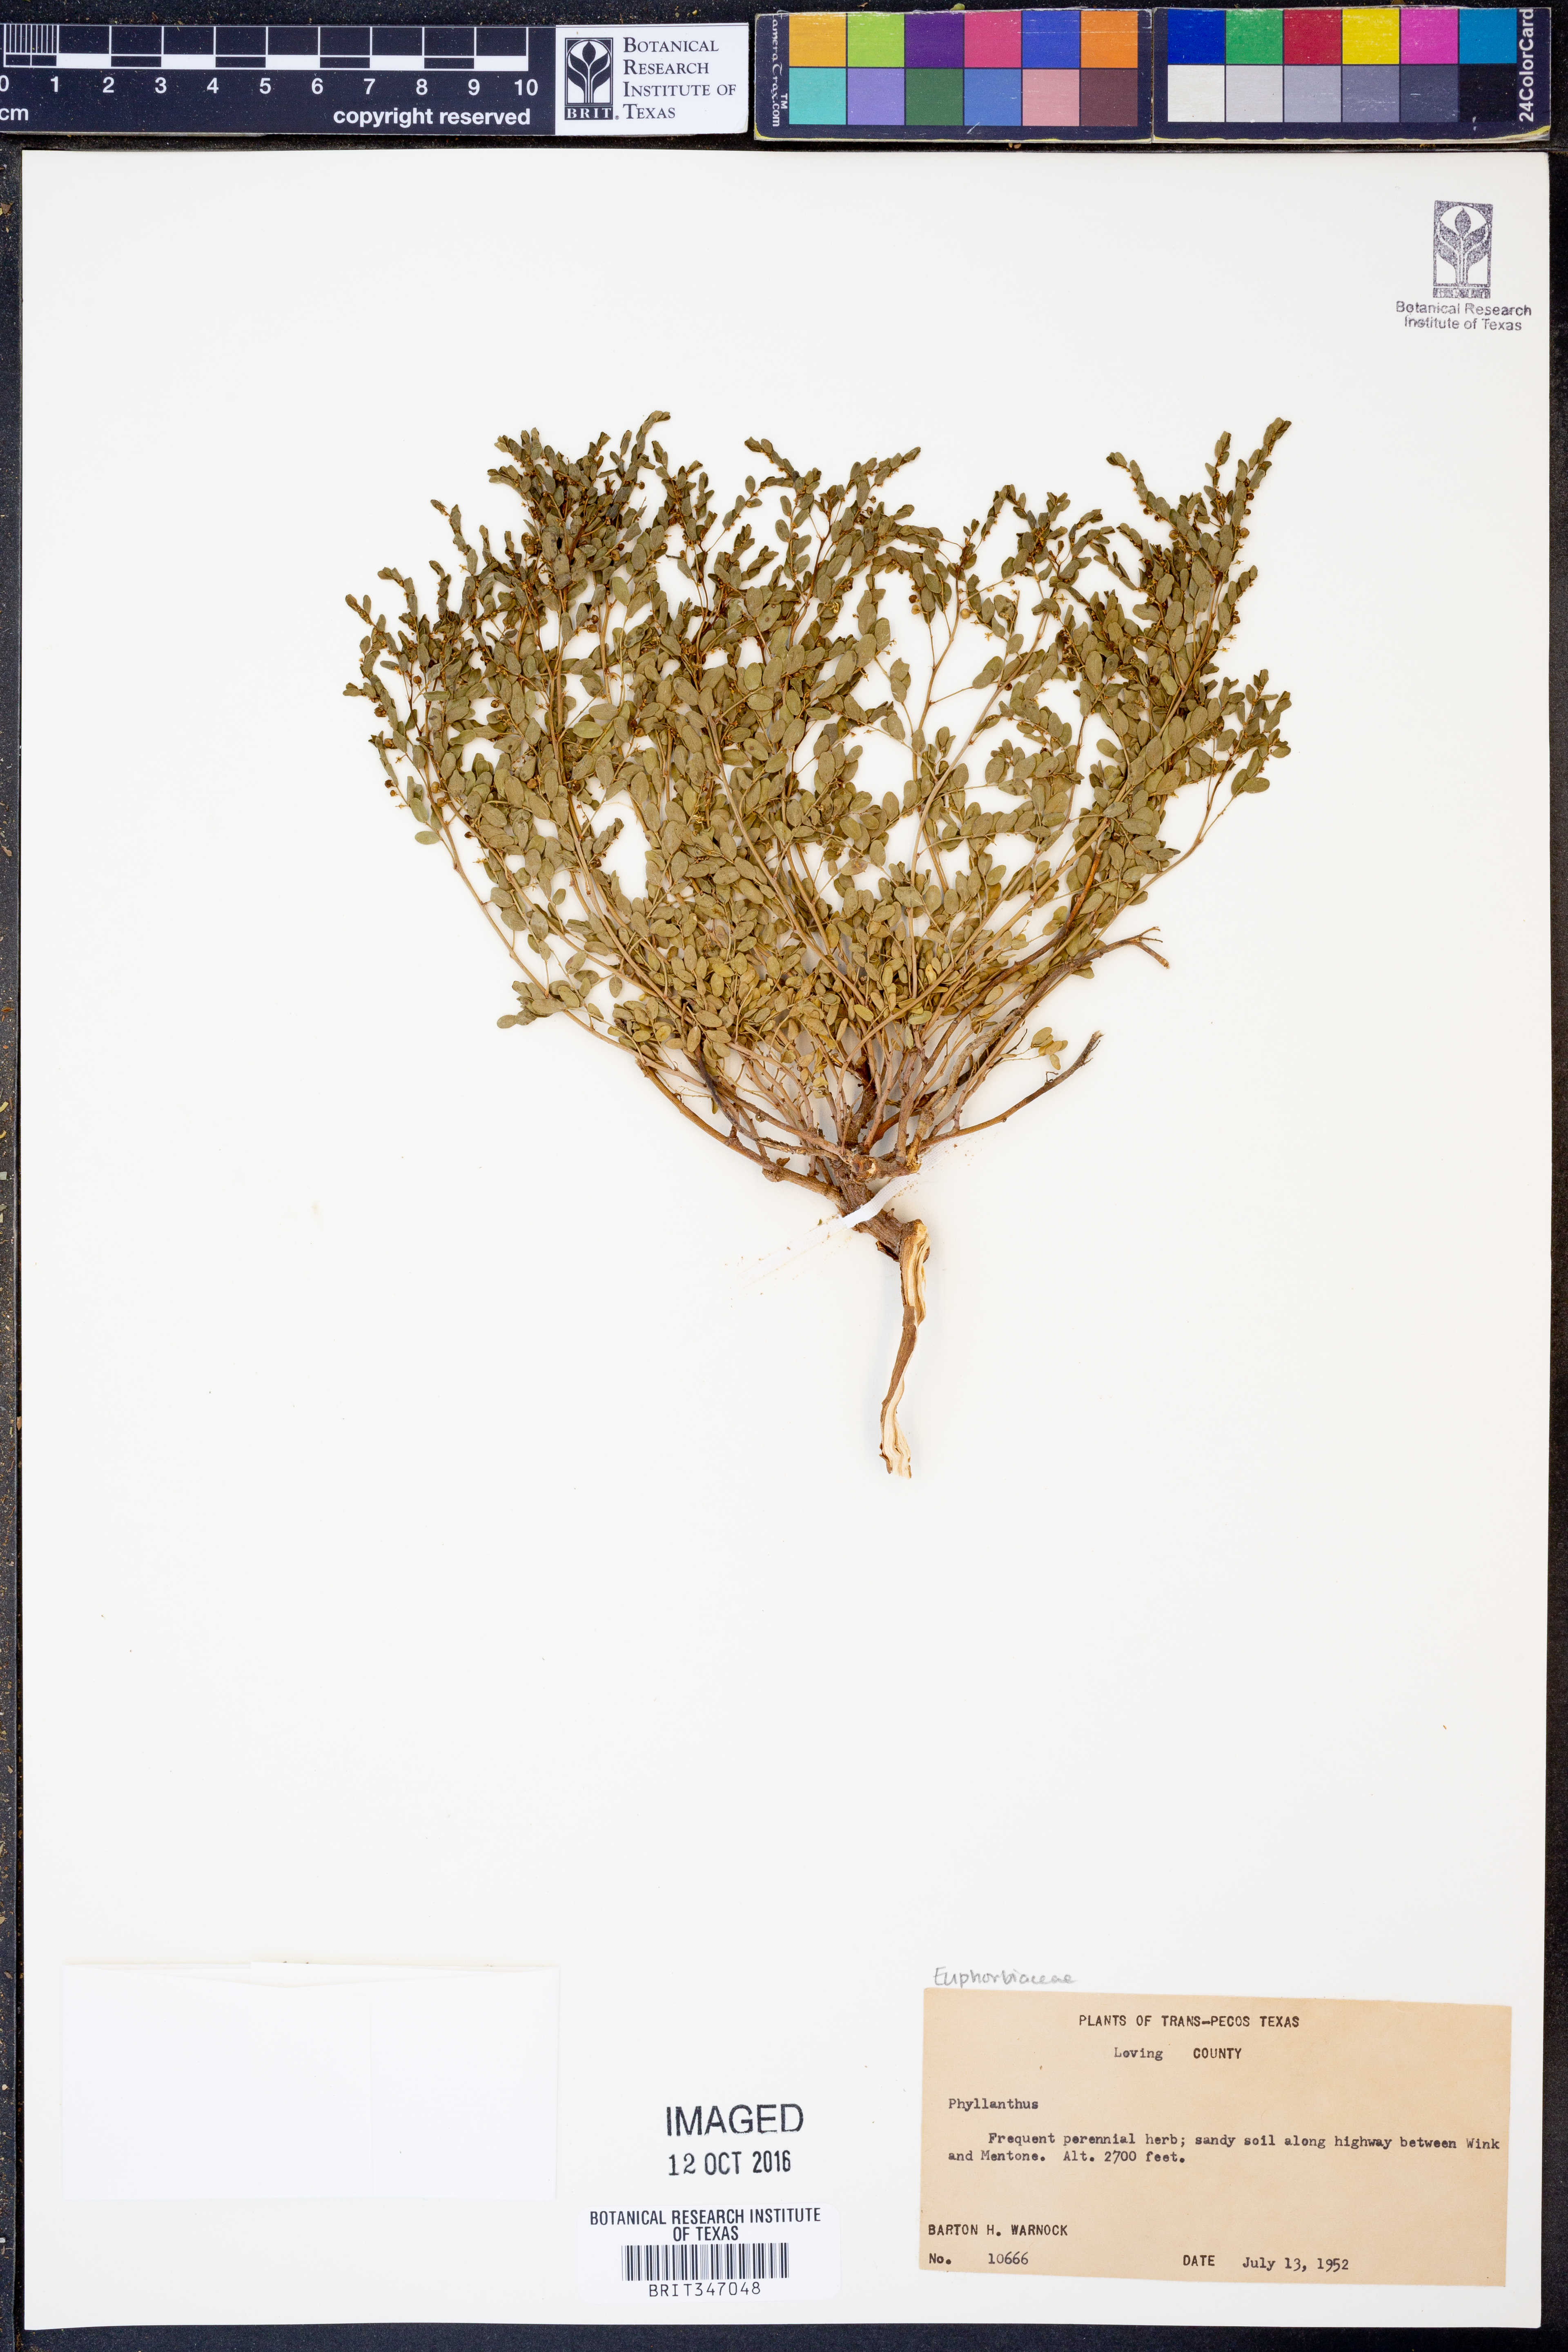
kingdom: Plantae
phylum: Tracheophyta
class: Magnoliopsida
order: Malpighiales
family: Phyllanthaceae
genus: Phyllanthus
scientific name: Phyllanthus
